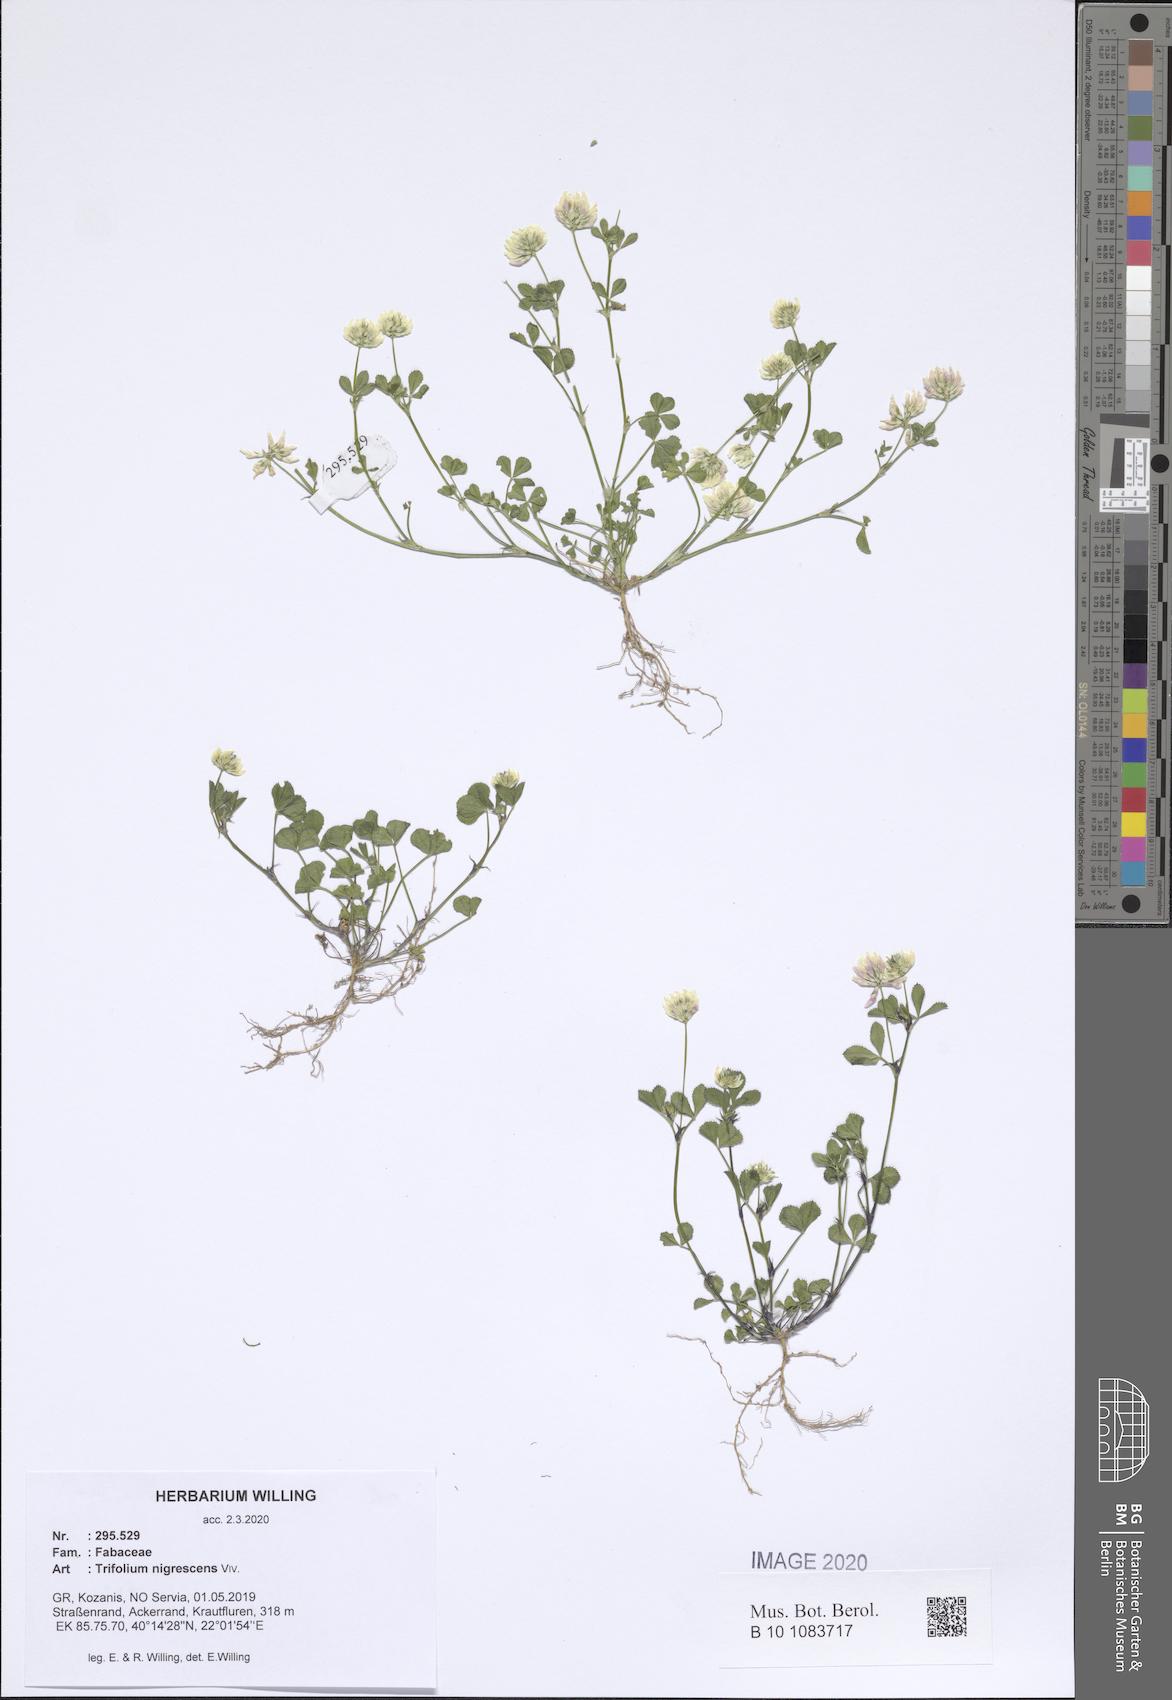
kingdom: Plantae
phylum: Tracheophyta
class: Magnoliopsida
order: Fabales
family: Fabaceae
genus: Trifolium
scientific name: Trifolium nigrescens
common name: Small white clover
